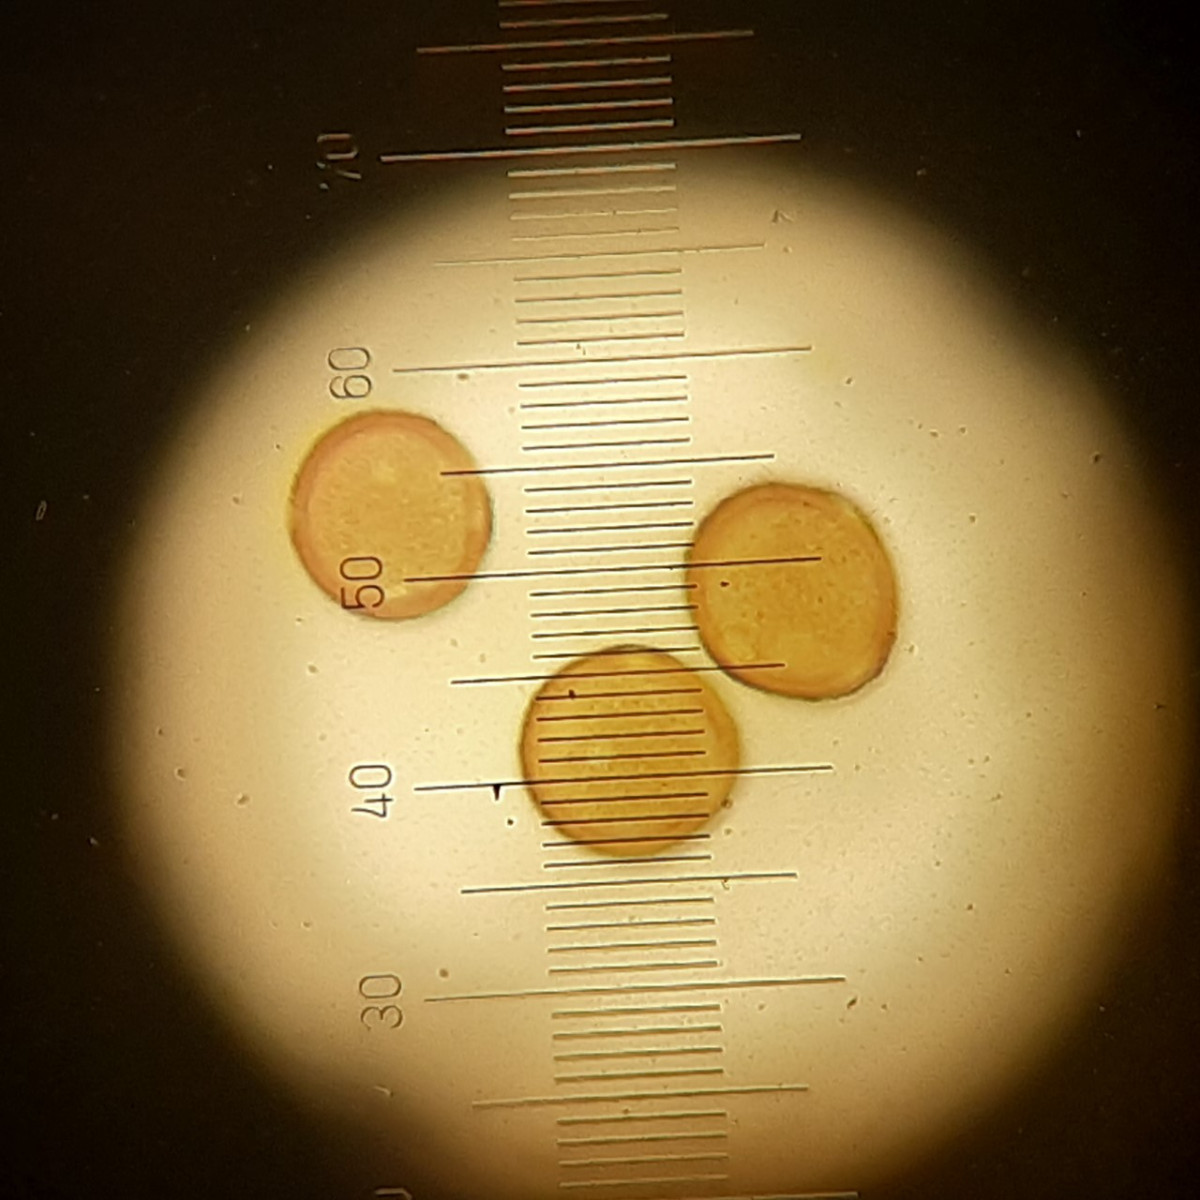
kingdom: Fungi
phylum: Basidiomycota
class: Pucciniomycetes
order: Pucciniales
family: Pucciniaceae
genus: Uromyces
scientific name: Uromyces fallens
